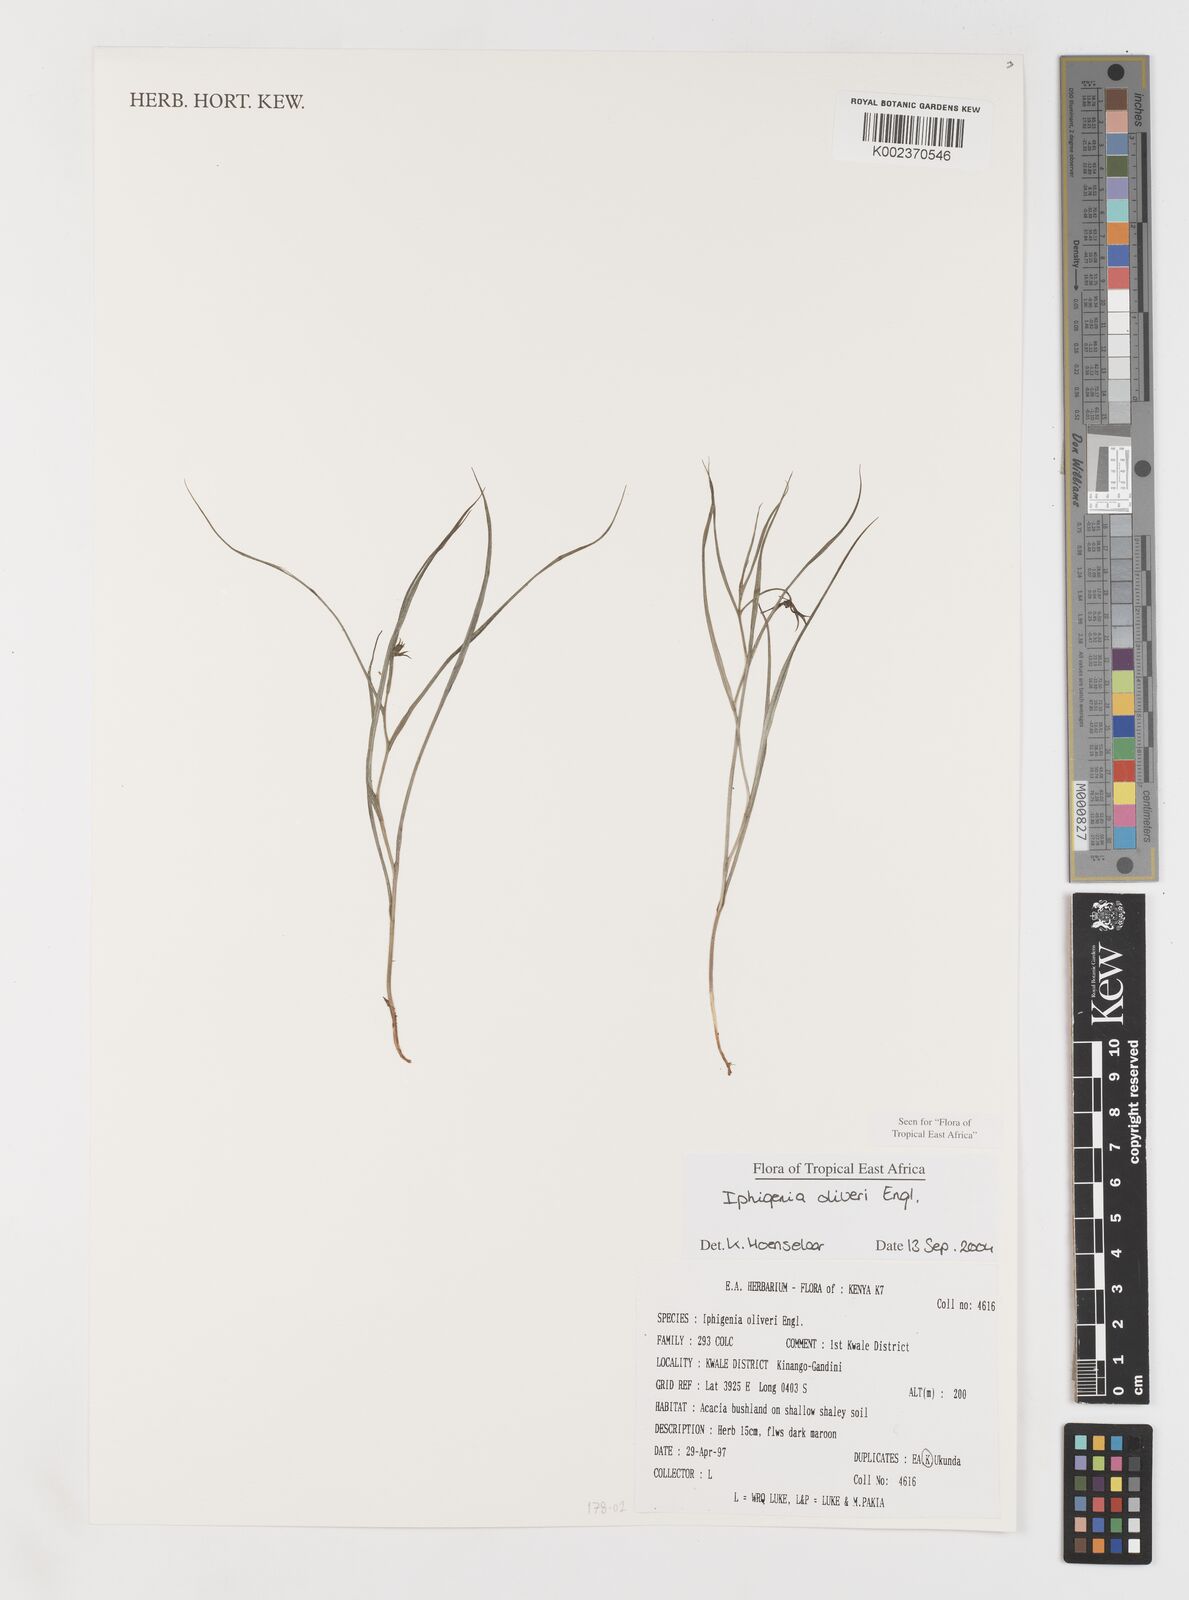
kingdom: Plantae
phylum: Tracheophyta
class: Liliopsida
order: Liliales
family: Colchicaceae
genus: Iphigenia
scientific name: Iphigenia oliveri
